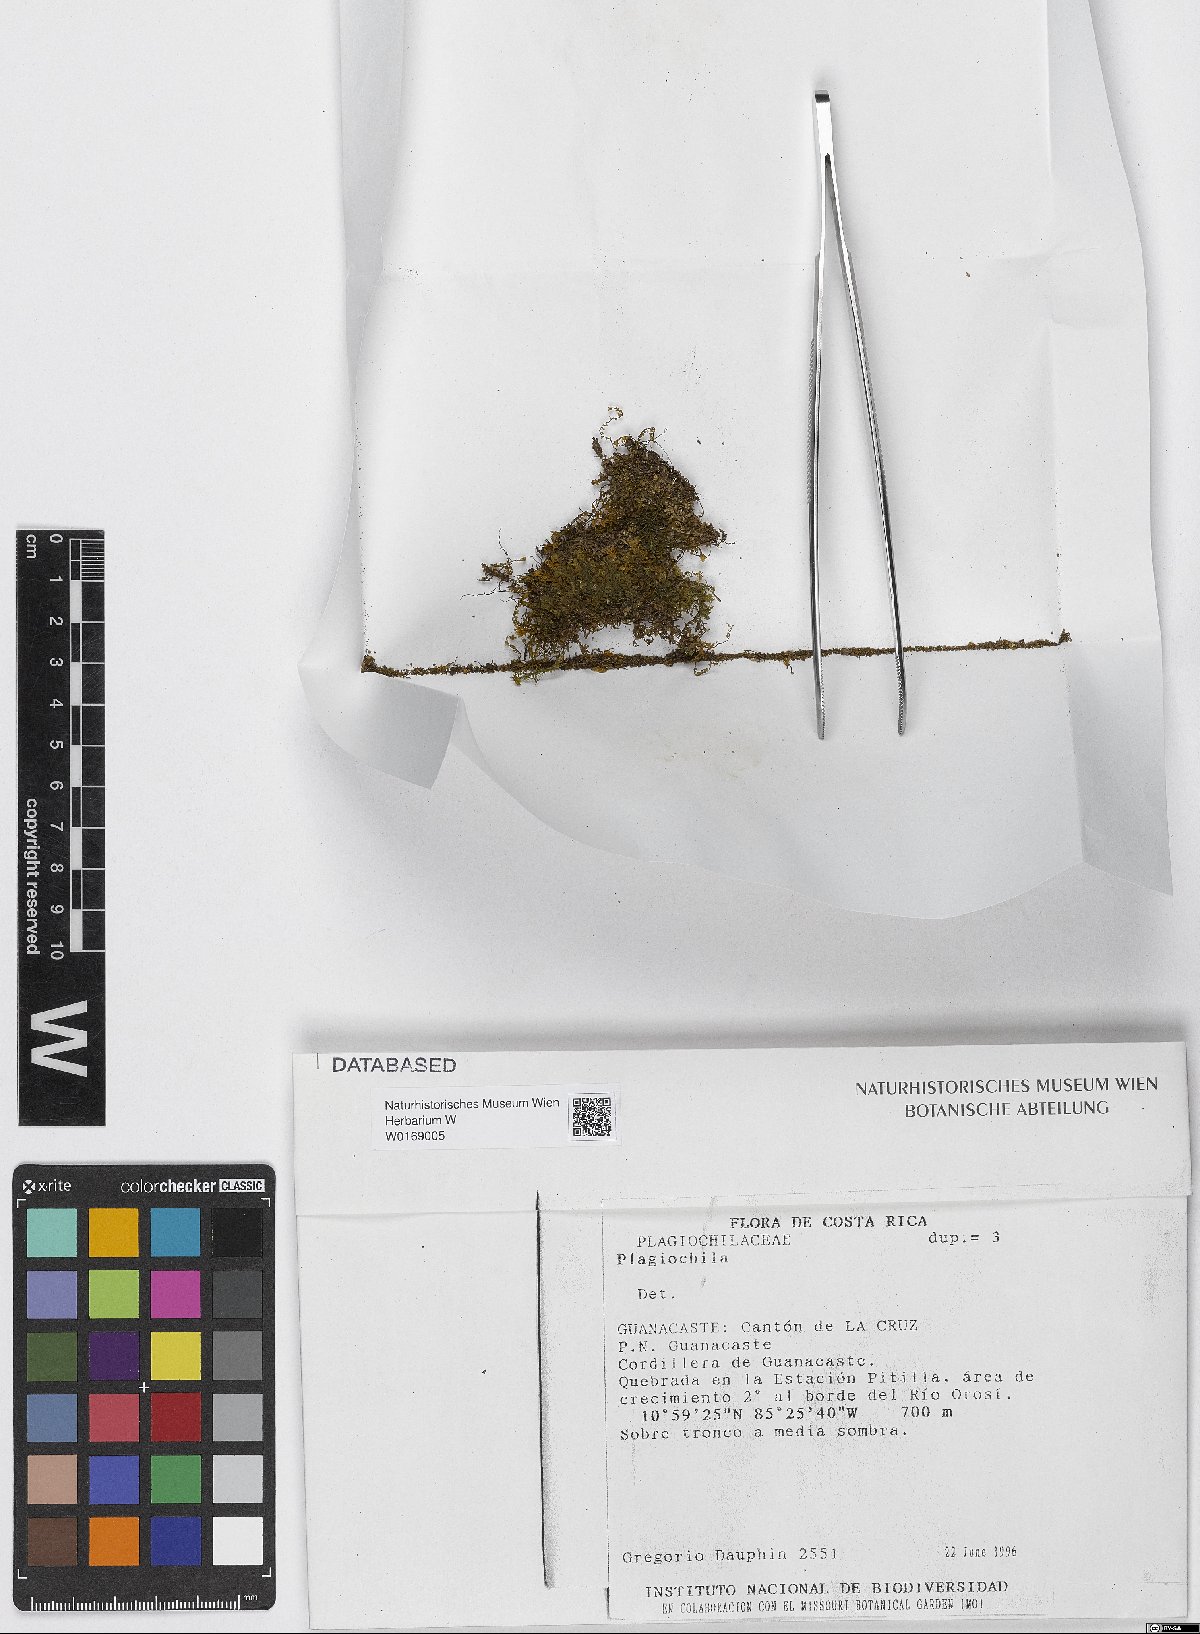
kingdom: Plantae
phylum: Marchantiophyta
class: Jungermanniopsida
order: Jungermanniales
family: Plagiochilaceae
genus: Plagiochila
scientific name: Plagiochila
